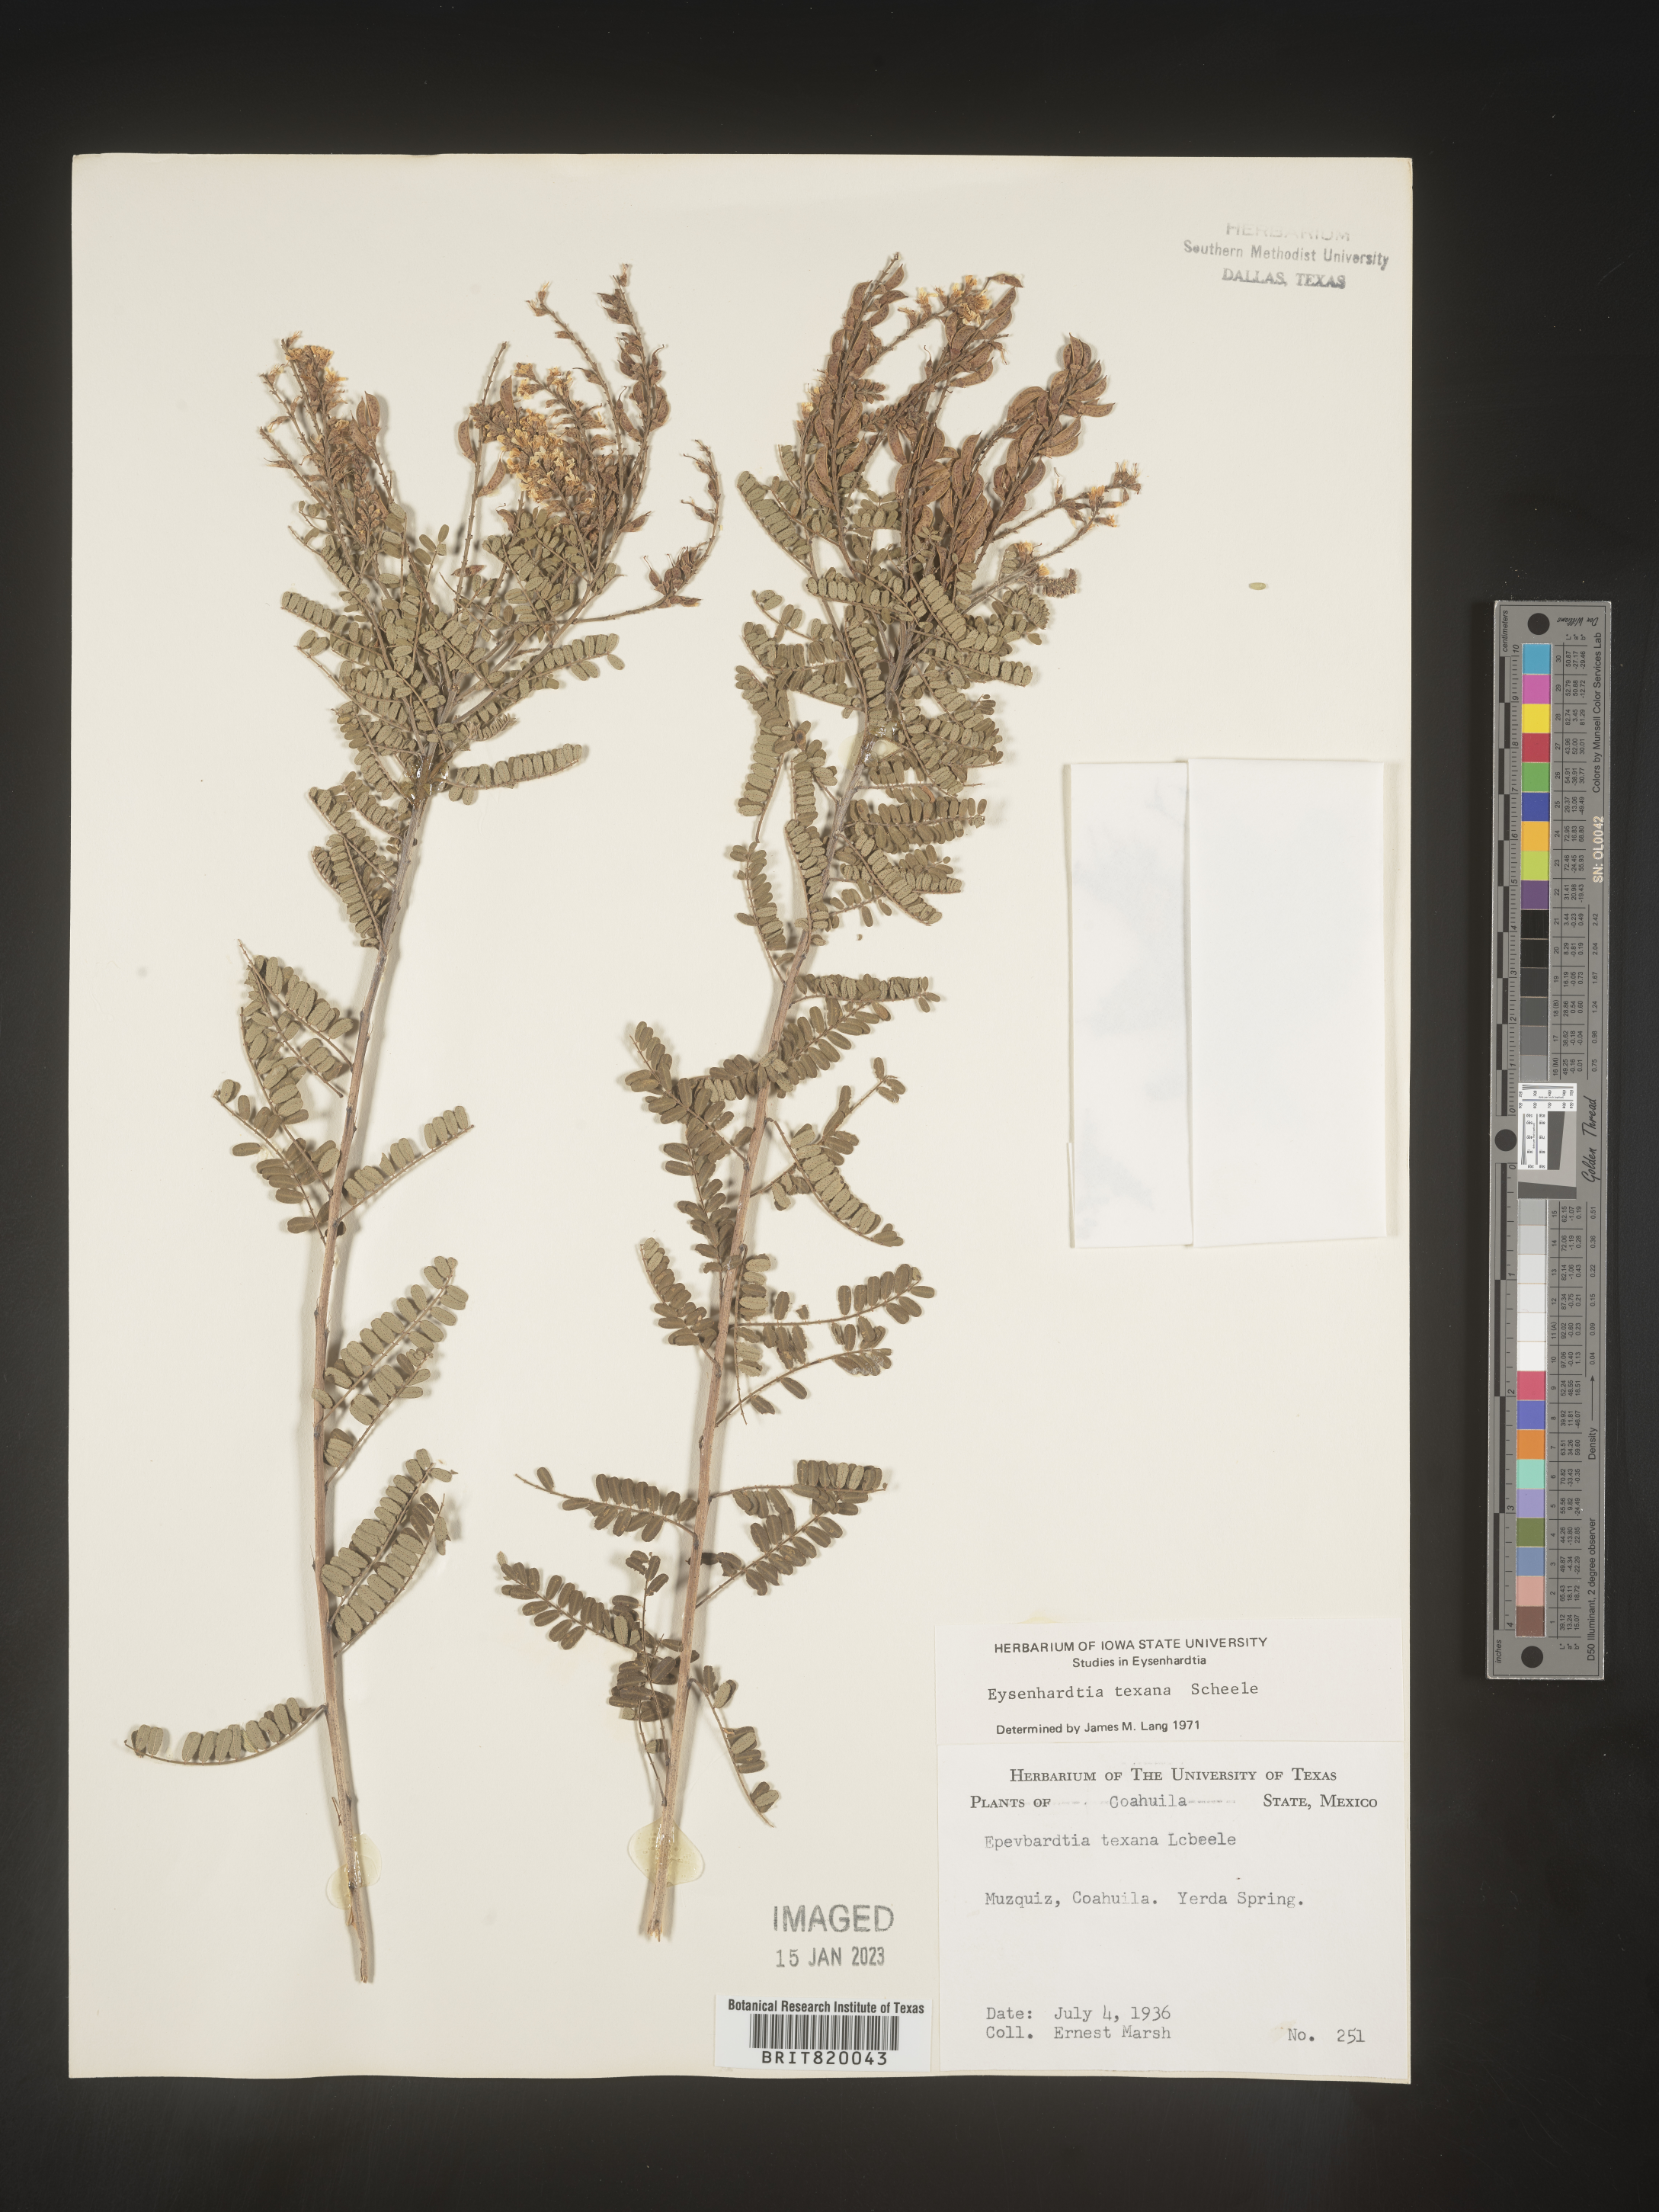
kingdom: Plantae
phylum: Tracheophyta
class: Magnoliopsida
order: Fabales
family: Fabaceae
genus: Eysenhardtia
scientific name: Eysenhardtia
